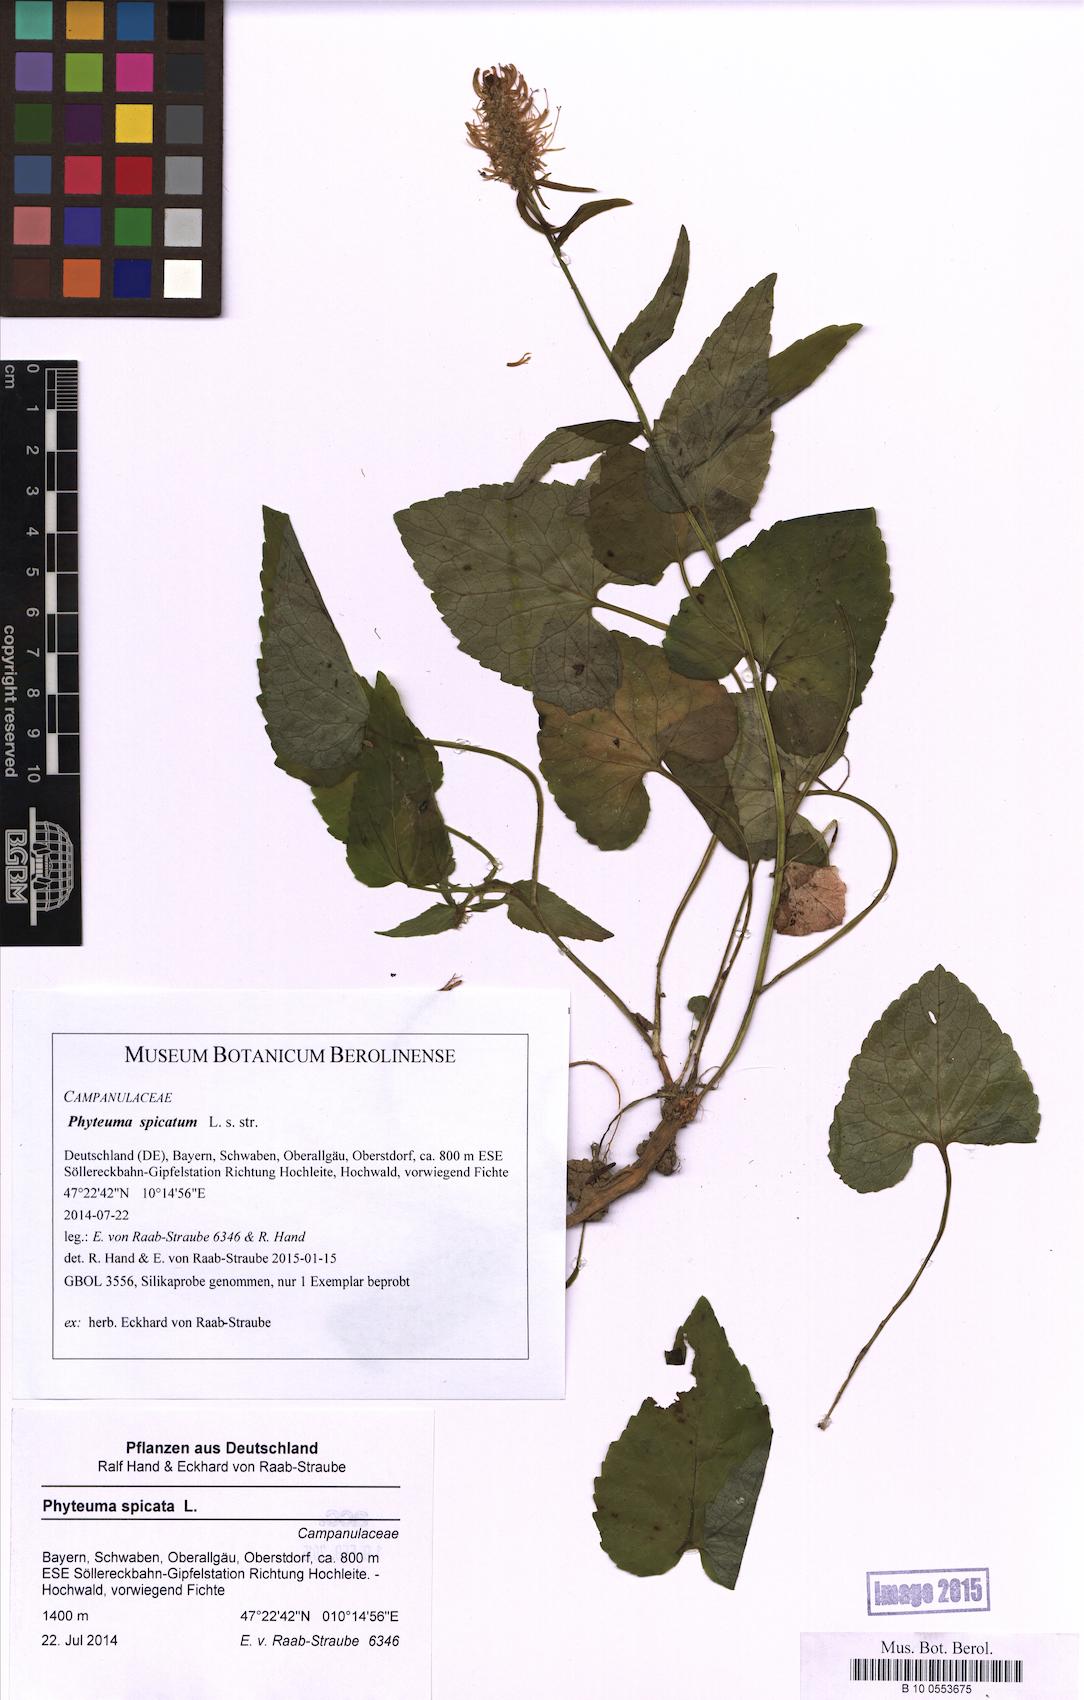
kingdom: Plantae
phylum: Tracheophyta
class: Magnoliopsida
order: Asterales
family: Campanulaceae
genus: Phyteuma
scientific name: Phyteuma spicatum
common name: Spiked rampion
